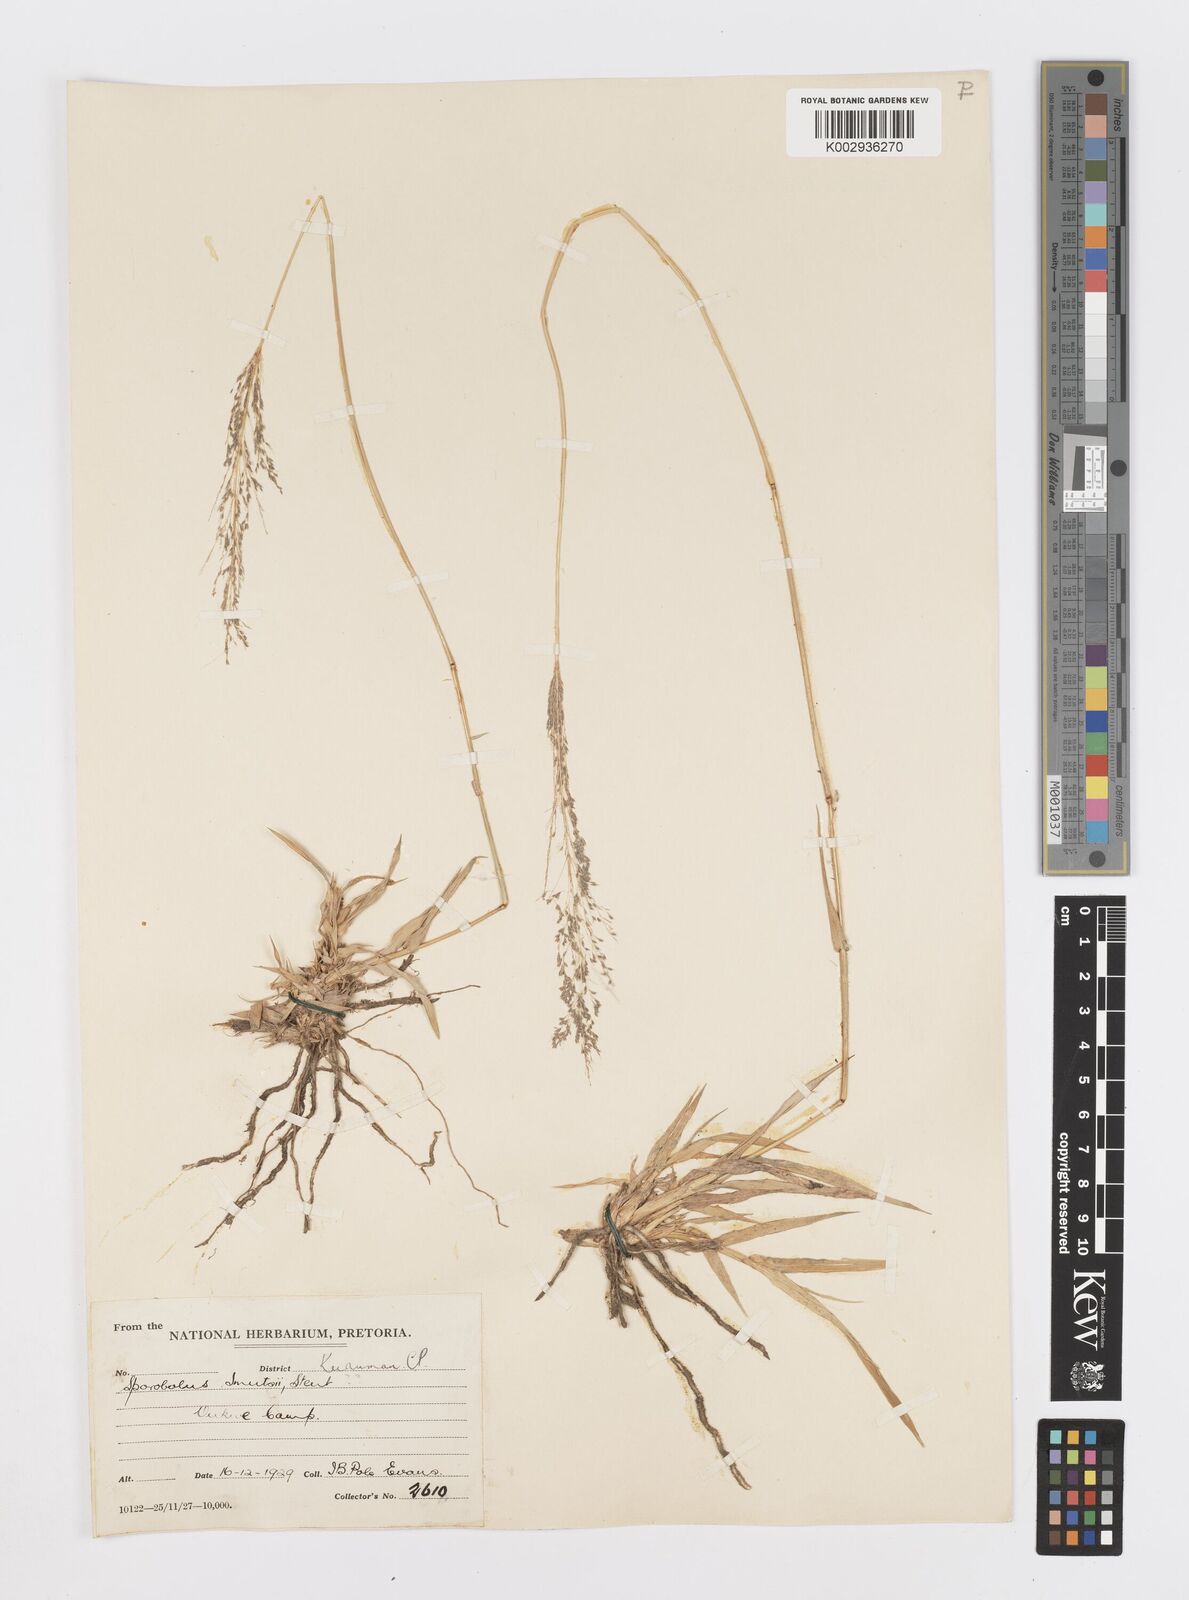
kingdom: Plantae
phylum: Tracheophyta
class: Liliopsida
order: Poales
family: Poaceae
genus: Sporobolus
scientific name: Sporobolus ioclados
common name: Pan dropseed
